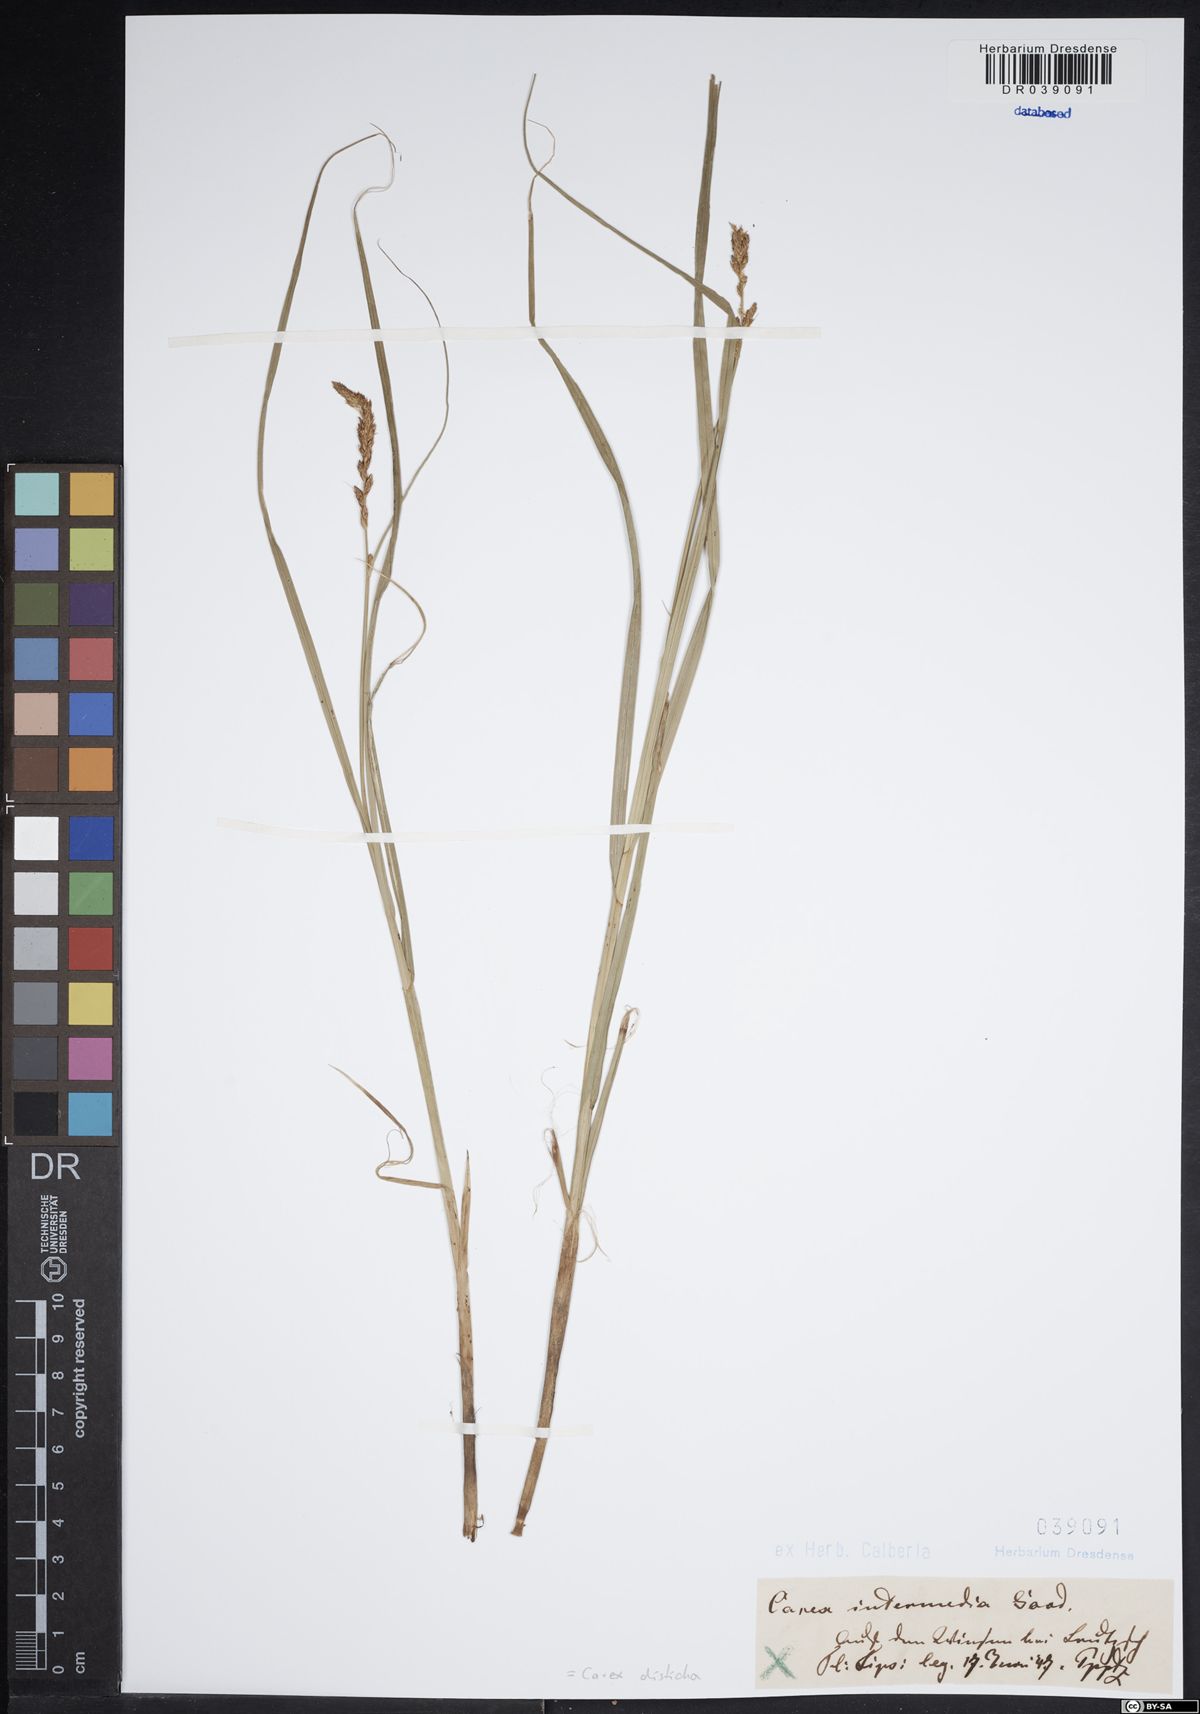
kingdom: Plantae
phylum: Tracheophyta
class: Liliopsida
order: Poales
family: Cyperaceae
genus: Carex
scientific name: Carex disticha
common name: Brown sedge
